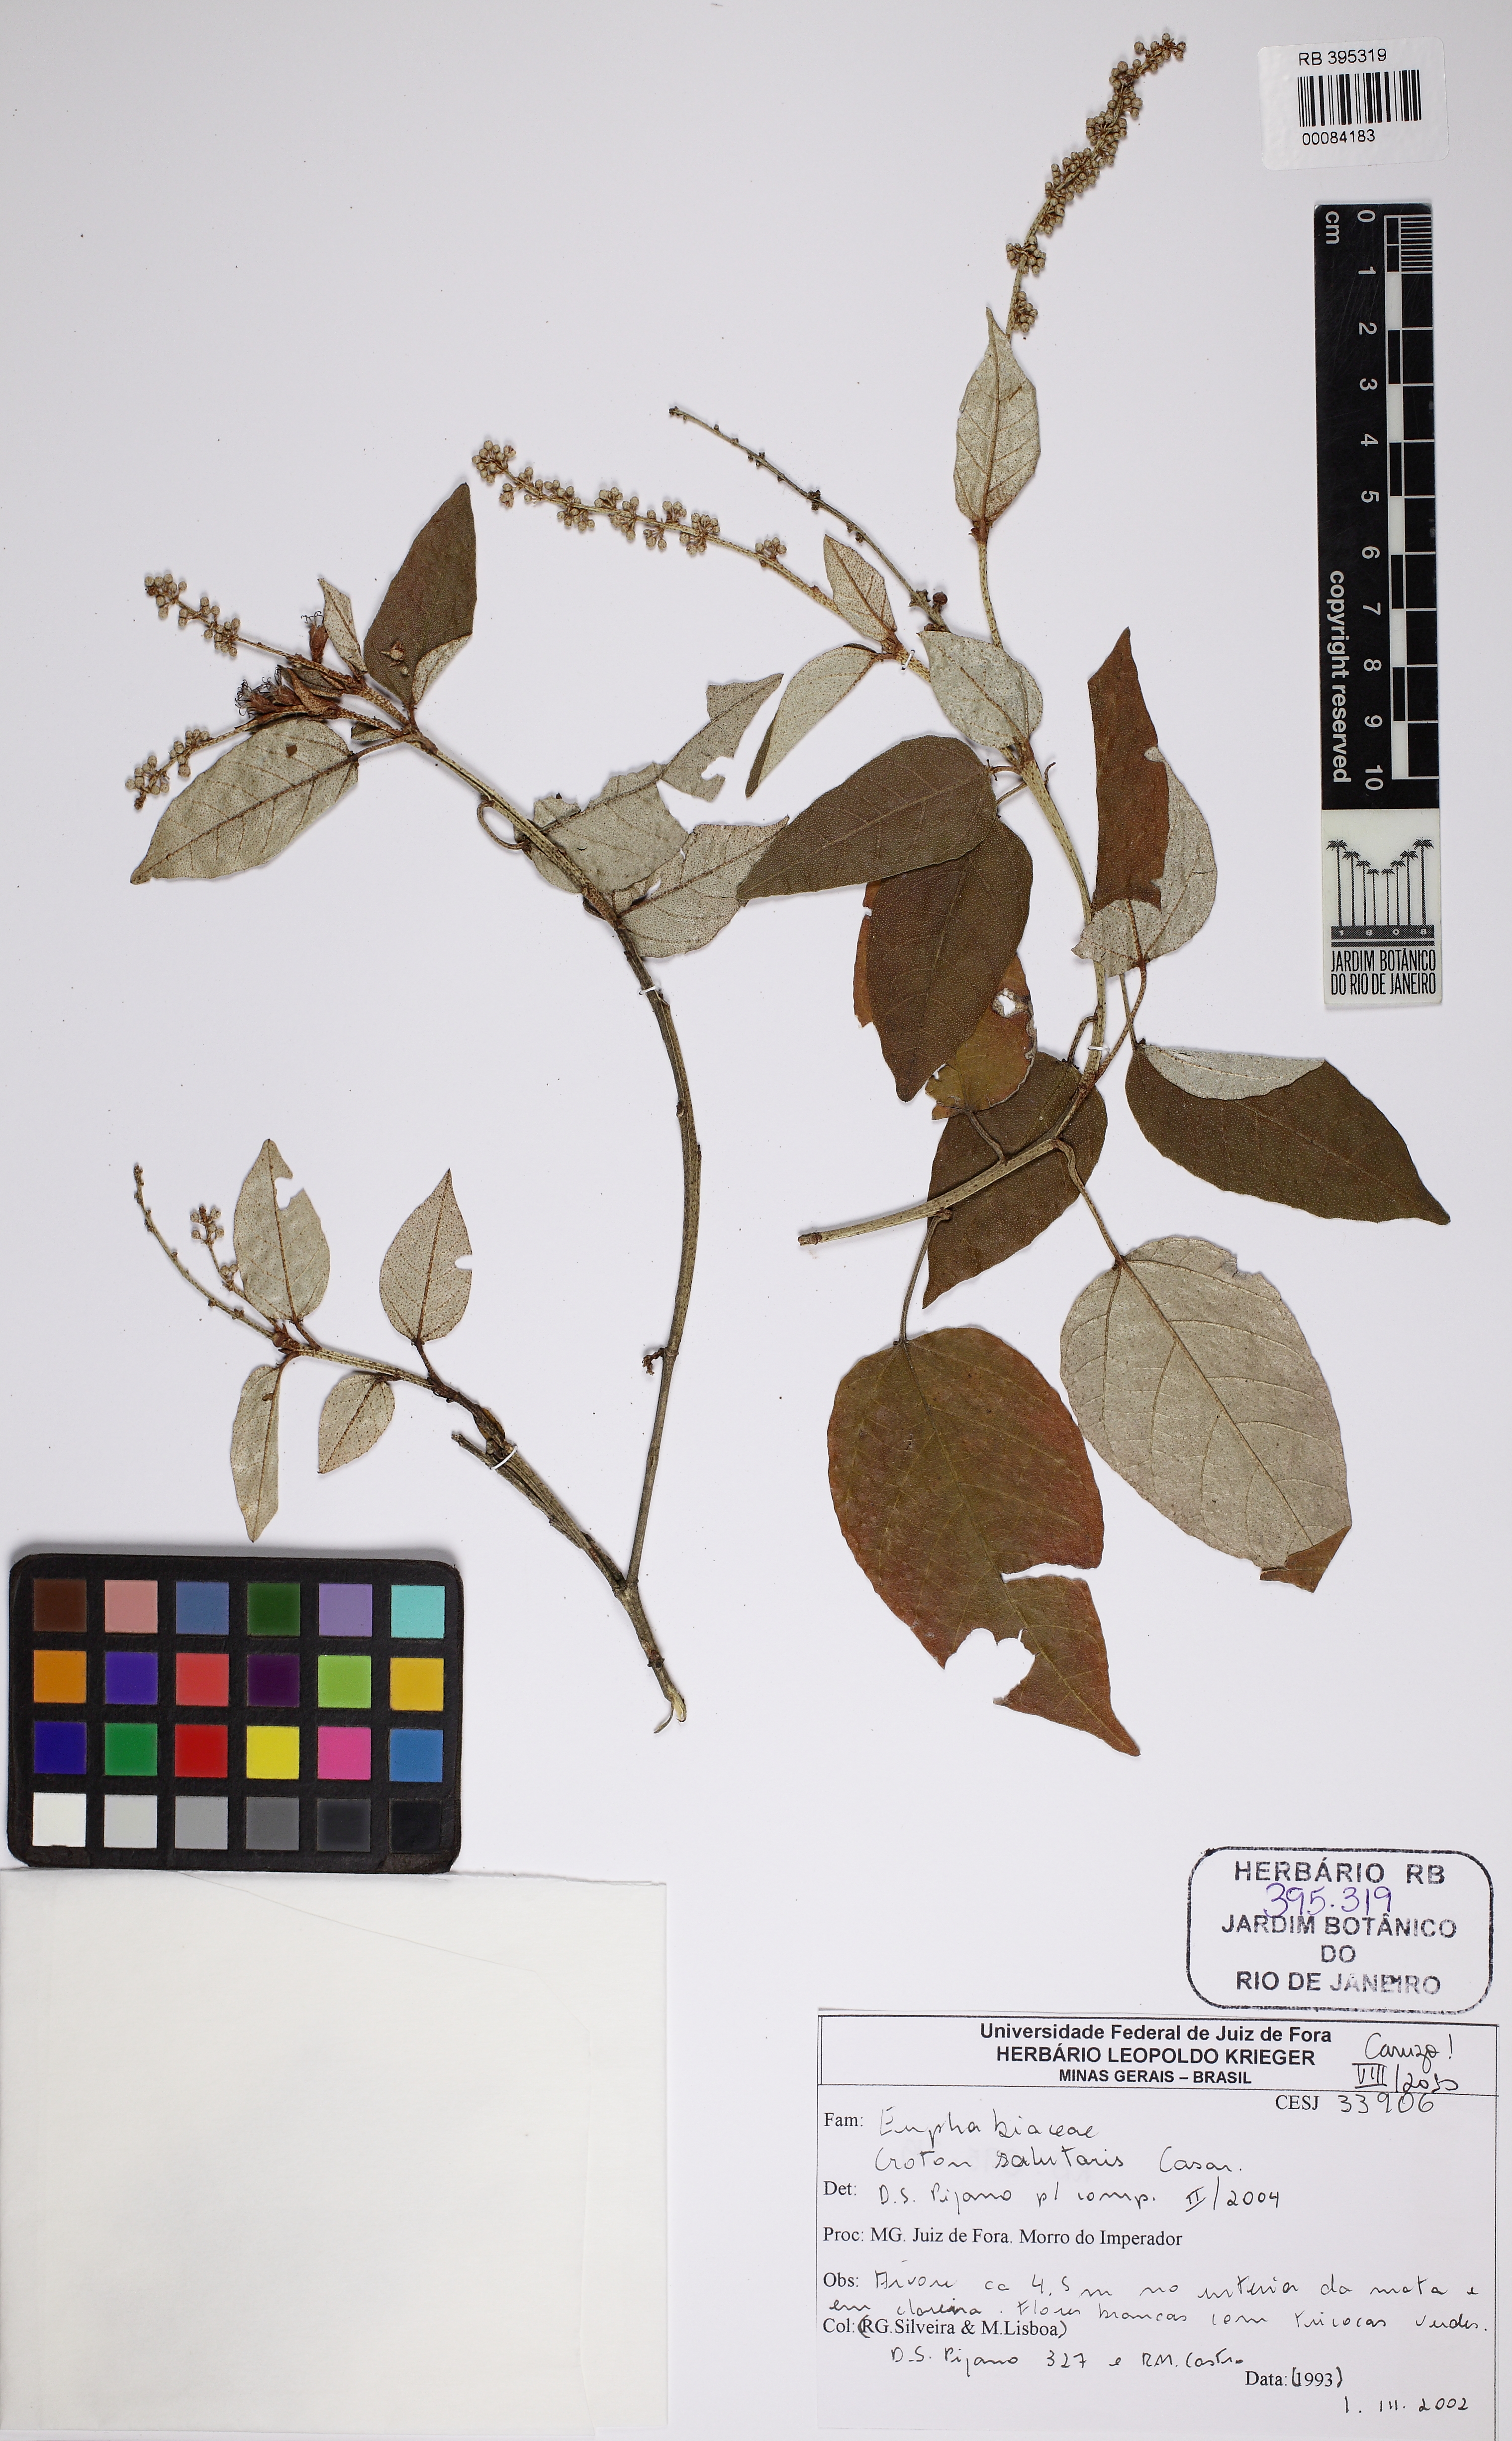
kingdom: Plantae
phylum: Tracheophyta
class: Magnoliopsida
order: Malpighiales
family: Euphorbiaceae
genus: Croton
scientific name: Croton salutaris
